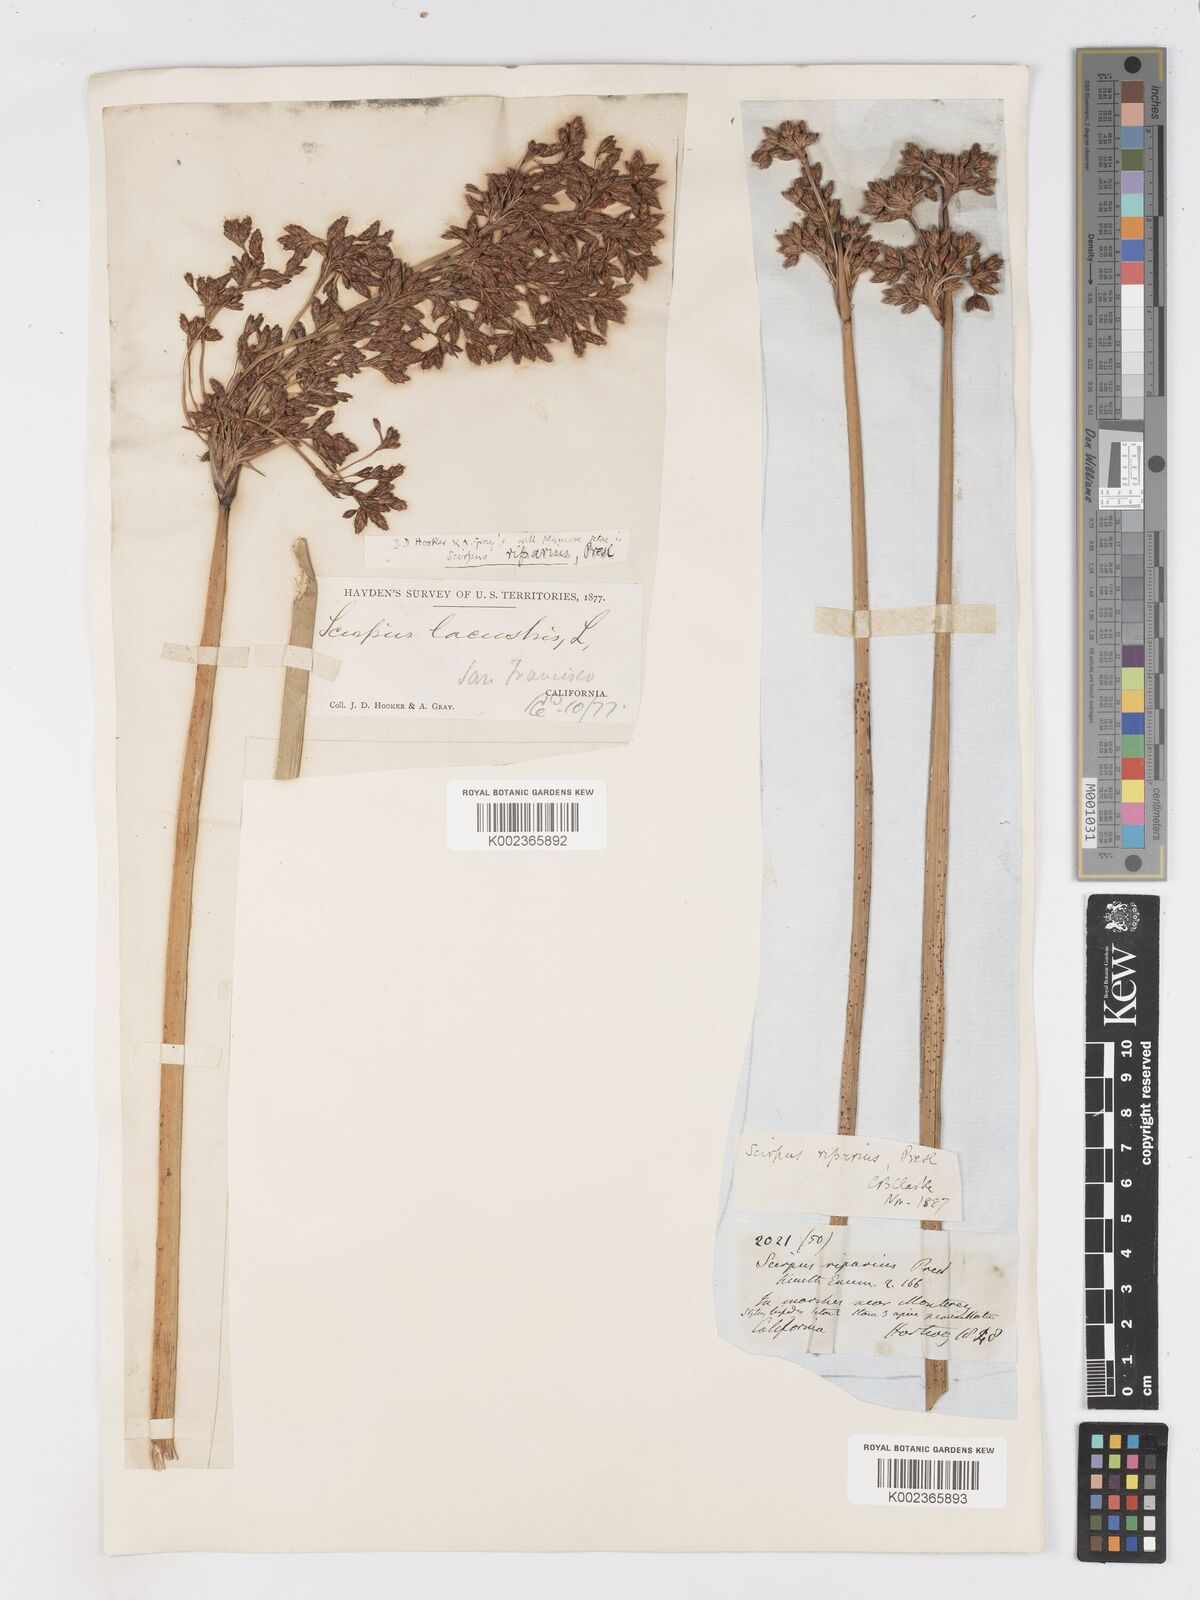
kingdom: Plantae
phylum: Tracheophyta
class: Liliopsida
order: Poales
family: Cyperaceae
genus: Schoenoplectus
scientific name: Schoenoplectus californicus
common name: California bulrush
